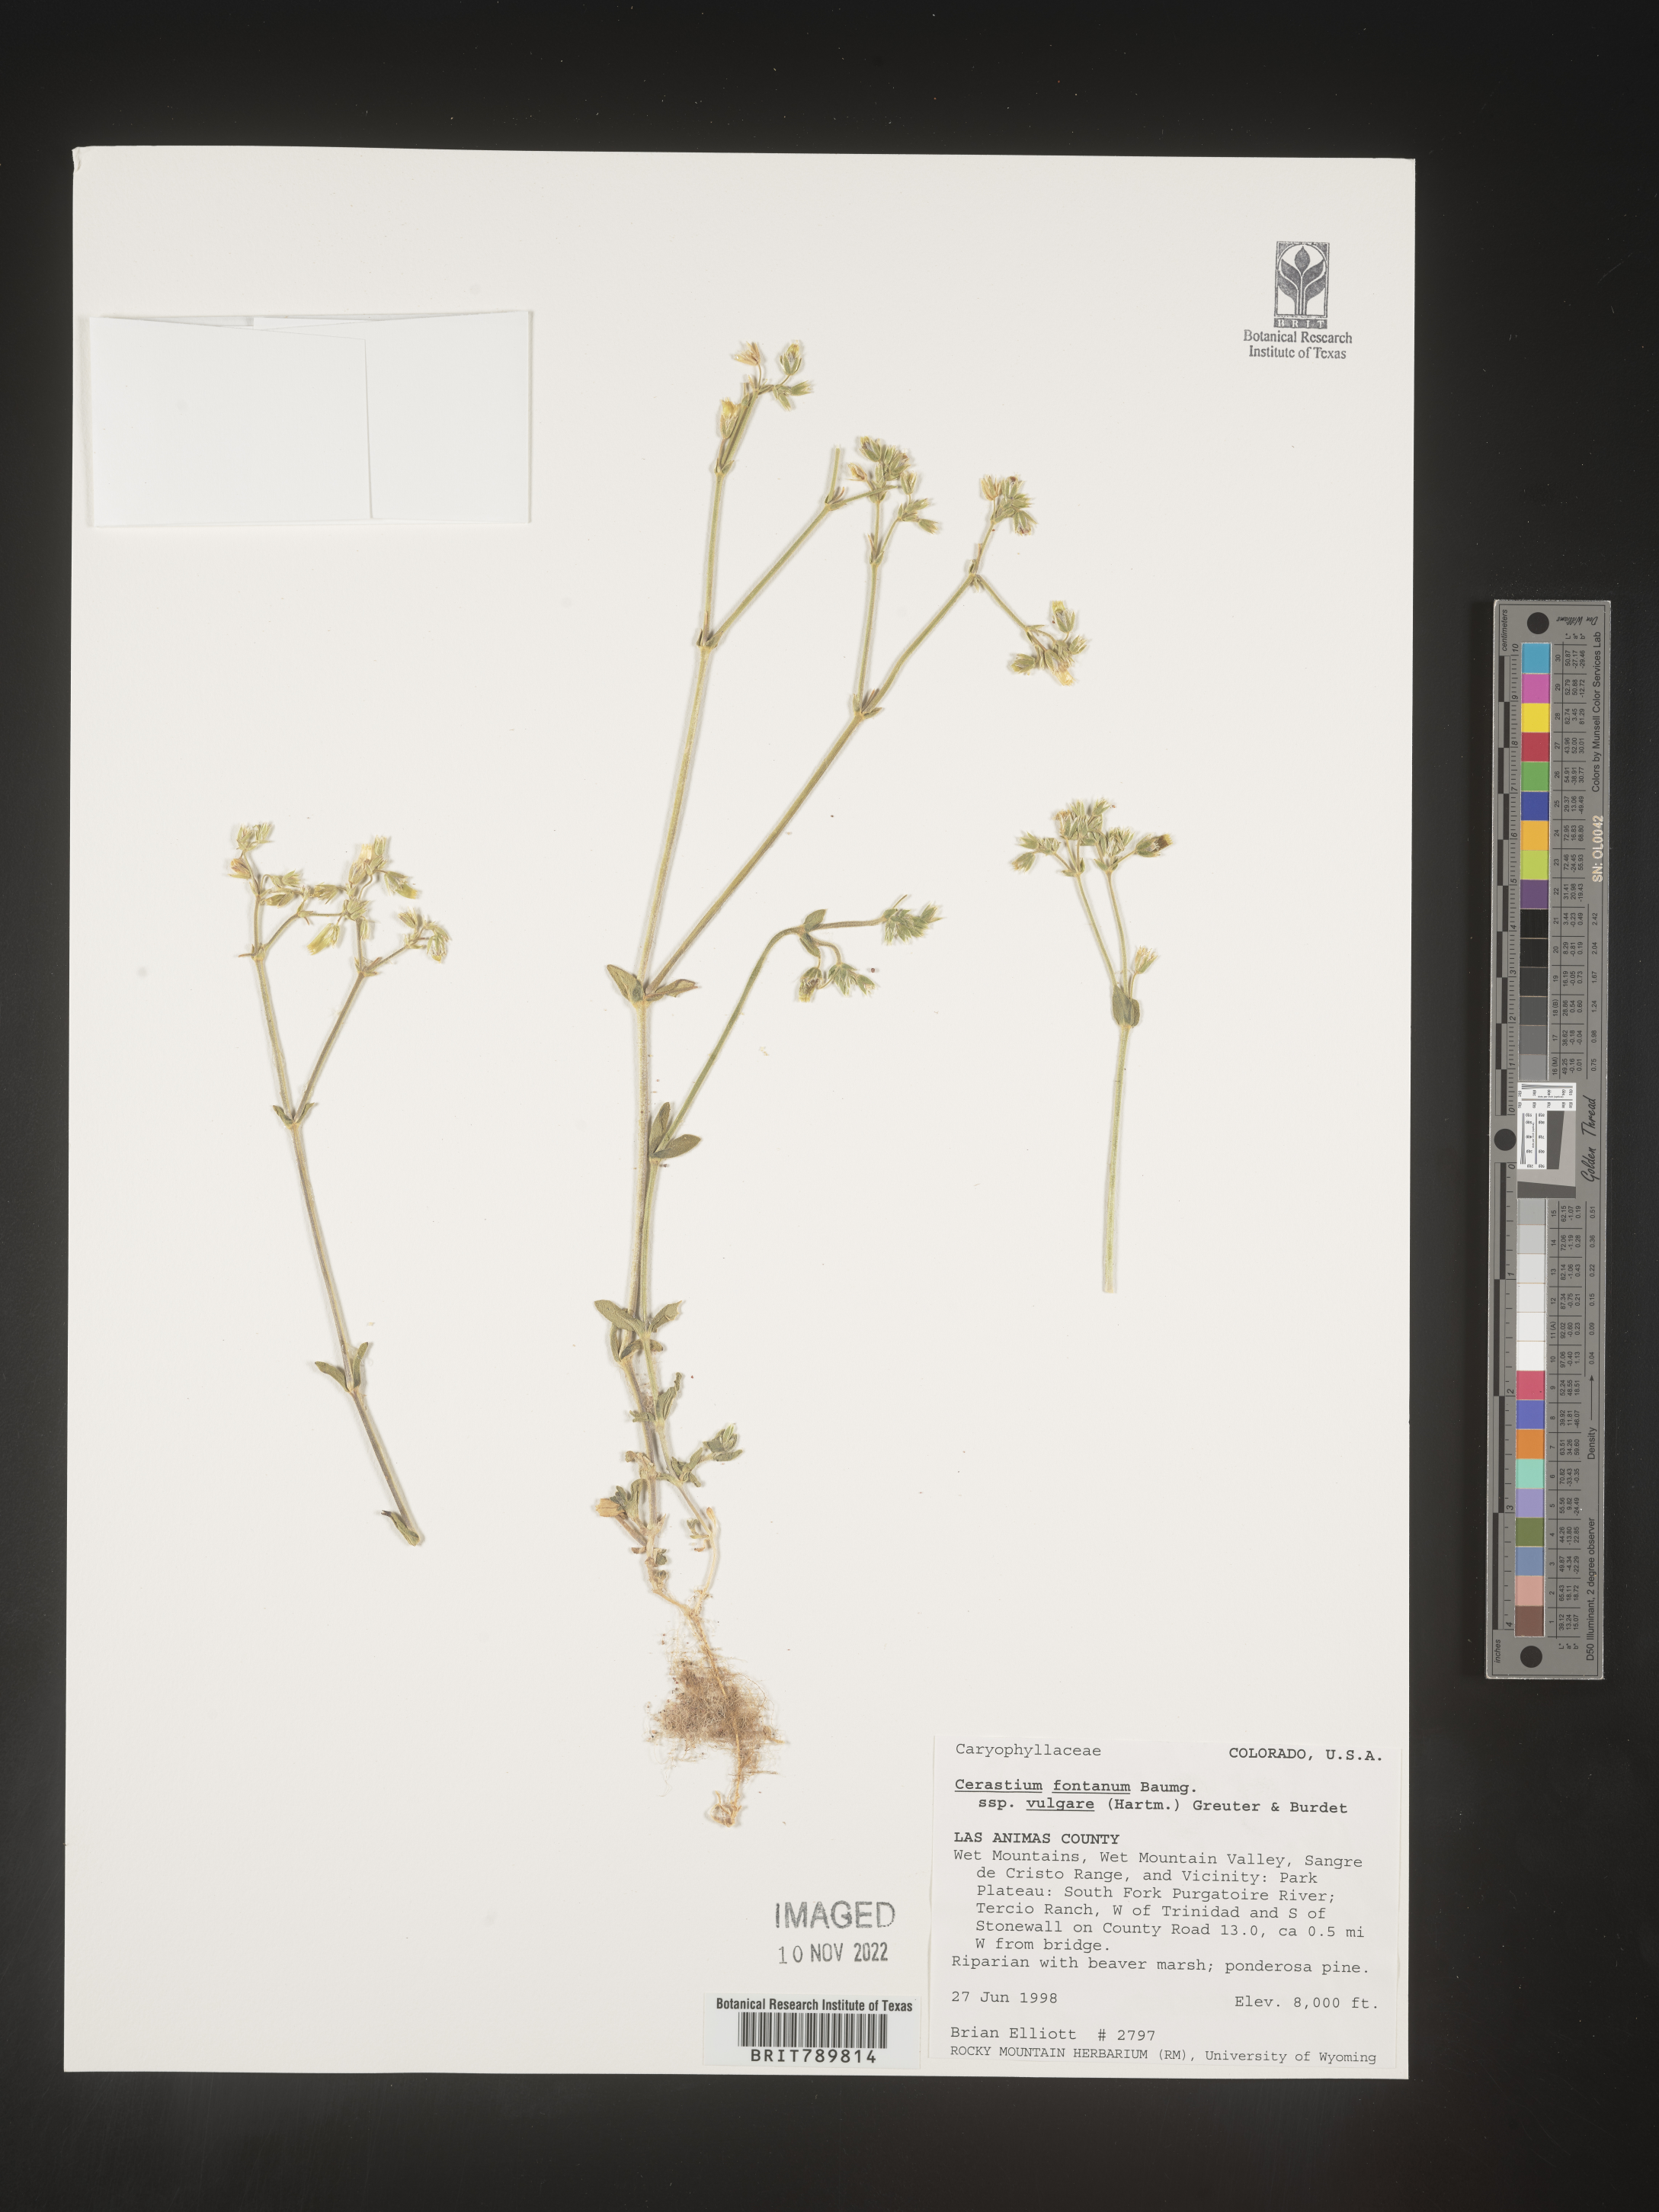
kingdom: Plantae
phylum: Tracheophyta
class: Magnoliopsida
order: Caryophyllales
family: Caryophyllaceae
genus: Cerastium
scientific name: Cerastium fontanum
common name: Common mouse-ear
